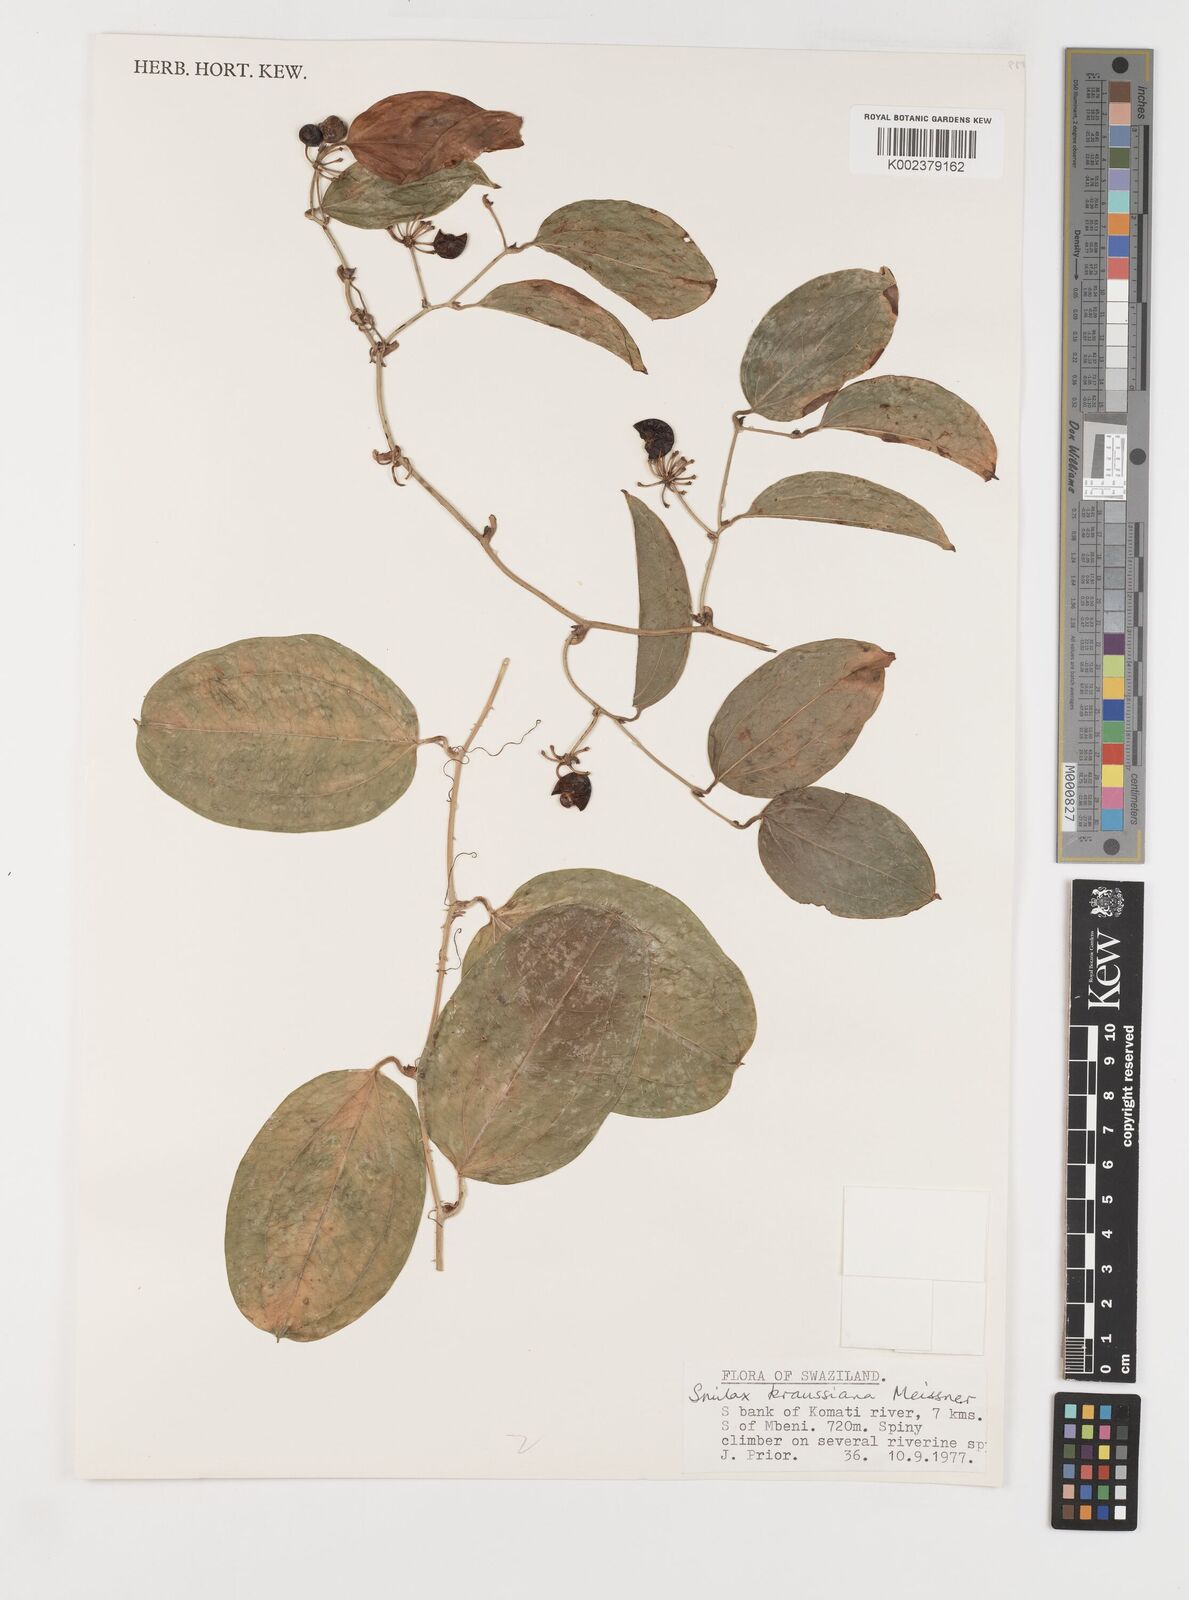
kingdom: Plantae
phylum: Tracheophyta
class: Liliopsida
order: Liliales
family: Smilacaceae
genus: Smilax
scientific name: Smilax anceps
